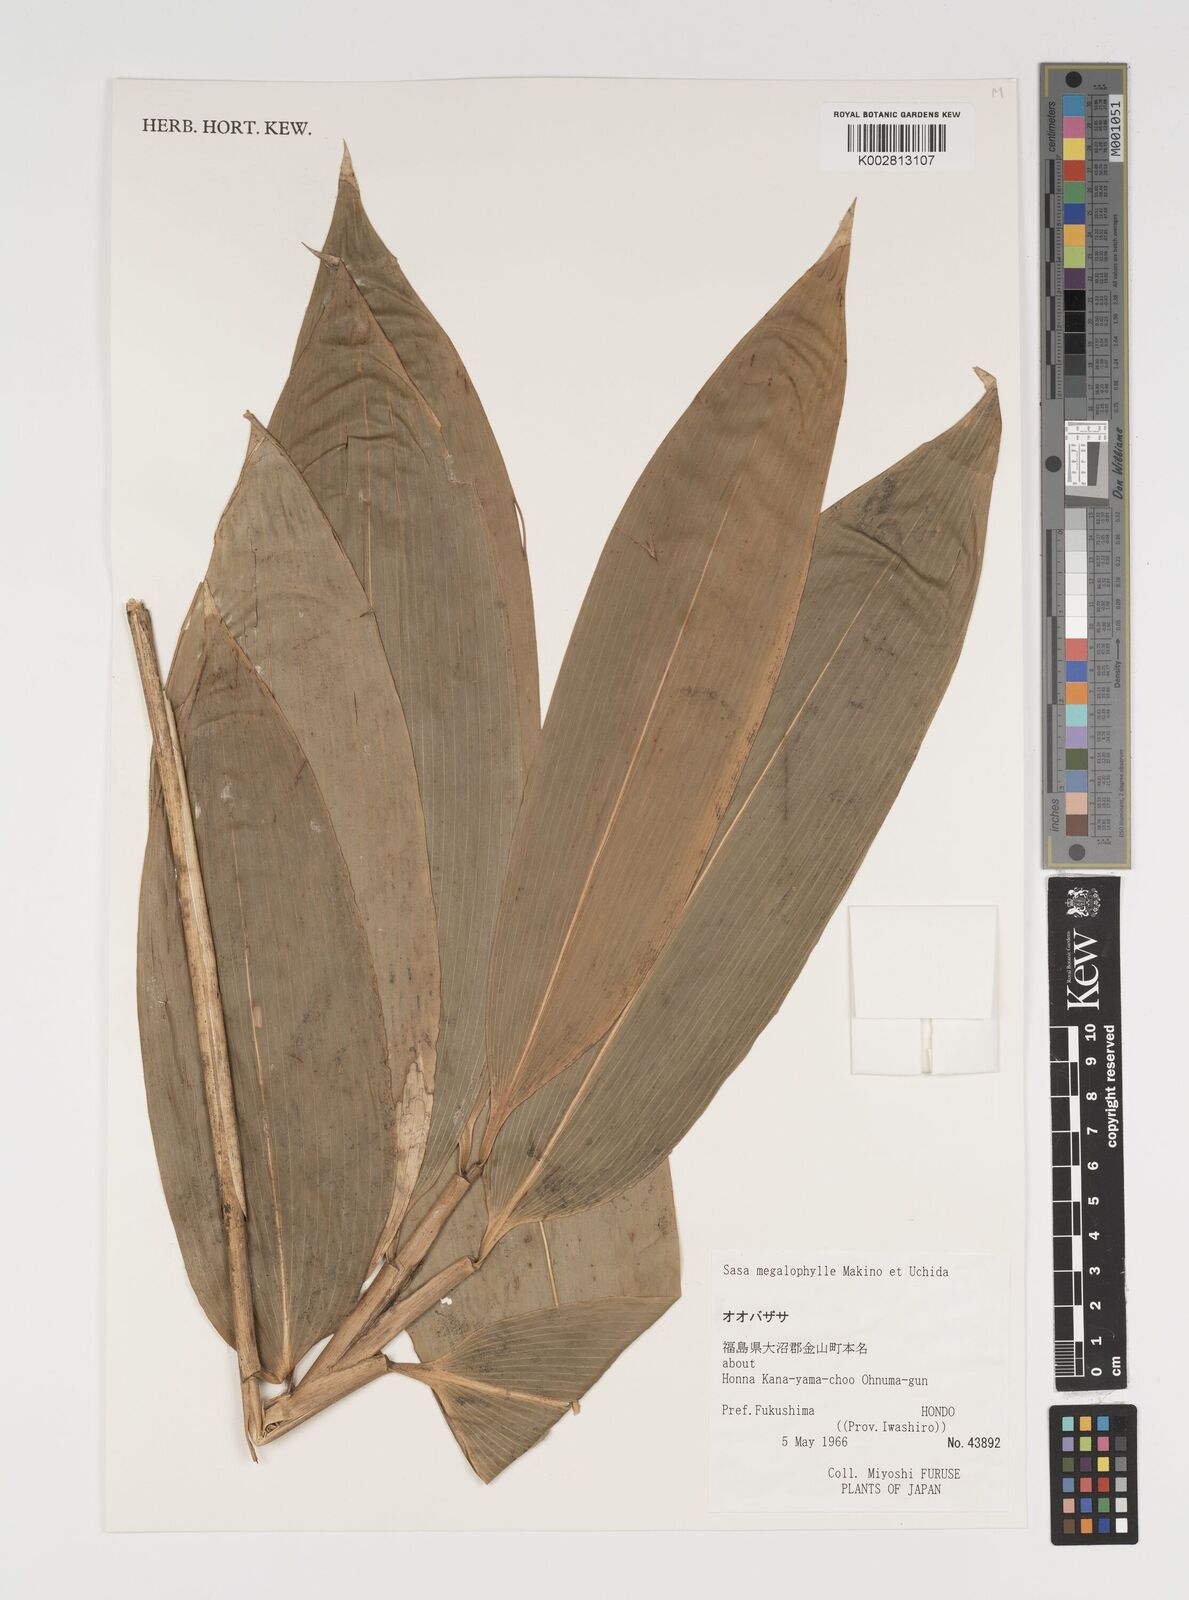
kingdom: Plantae
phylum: Tracheophyta
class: Liliopsida
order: Poales
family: Poaceae
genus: Sasa
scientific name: Sasa megalophylla
